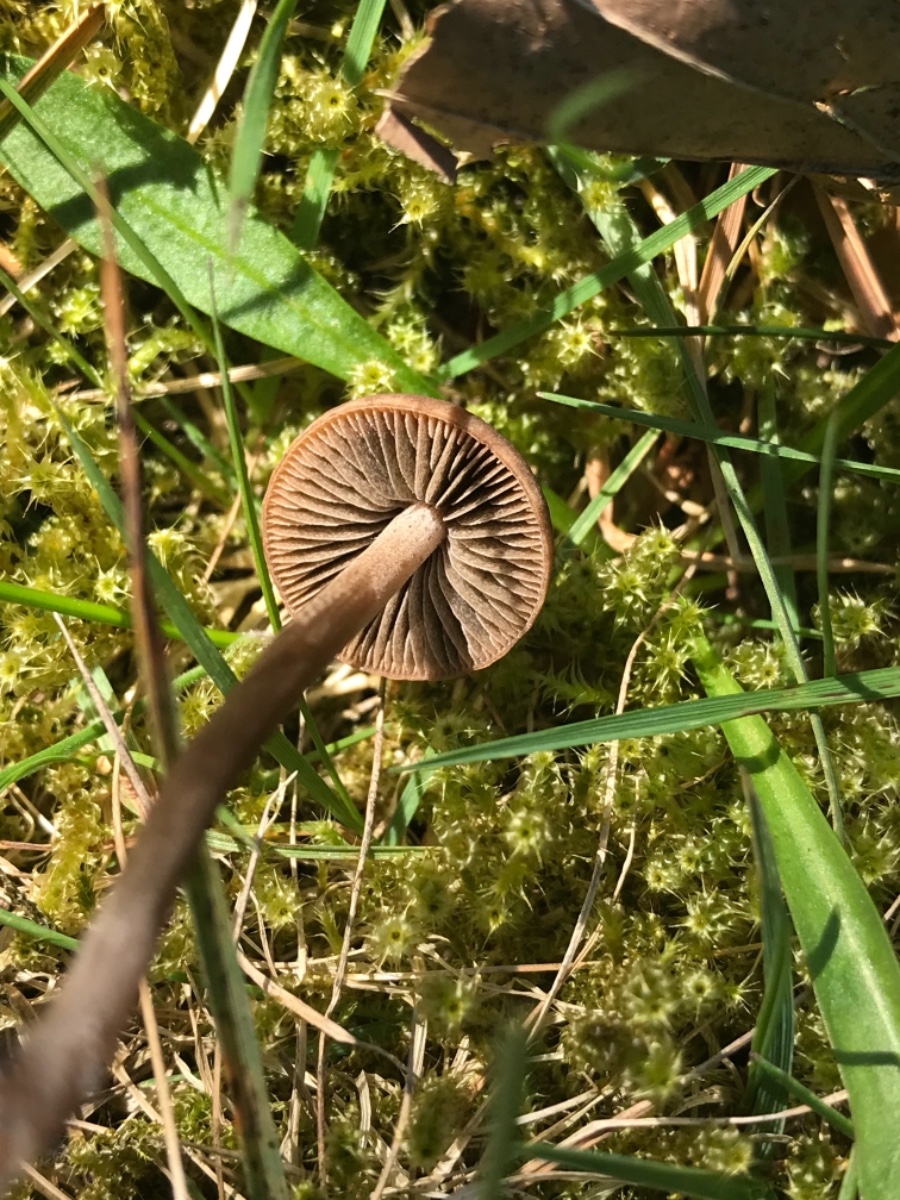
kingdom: Fungi
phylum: Basidiomycota
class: Agaricomycetes
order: Agaricales
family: Bolbitiaceae
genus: Panaeolina
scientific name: Panaeolina foenisecii
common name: høslætsvamp
